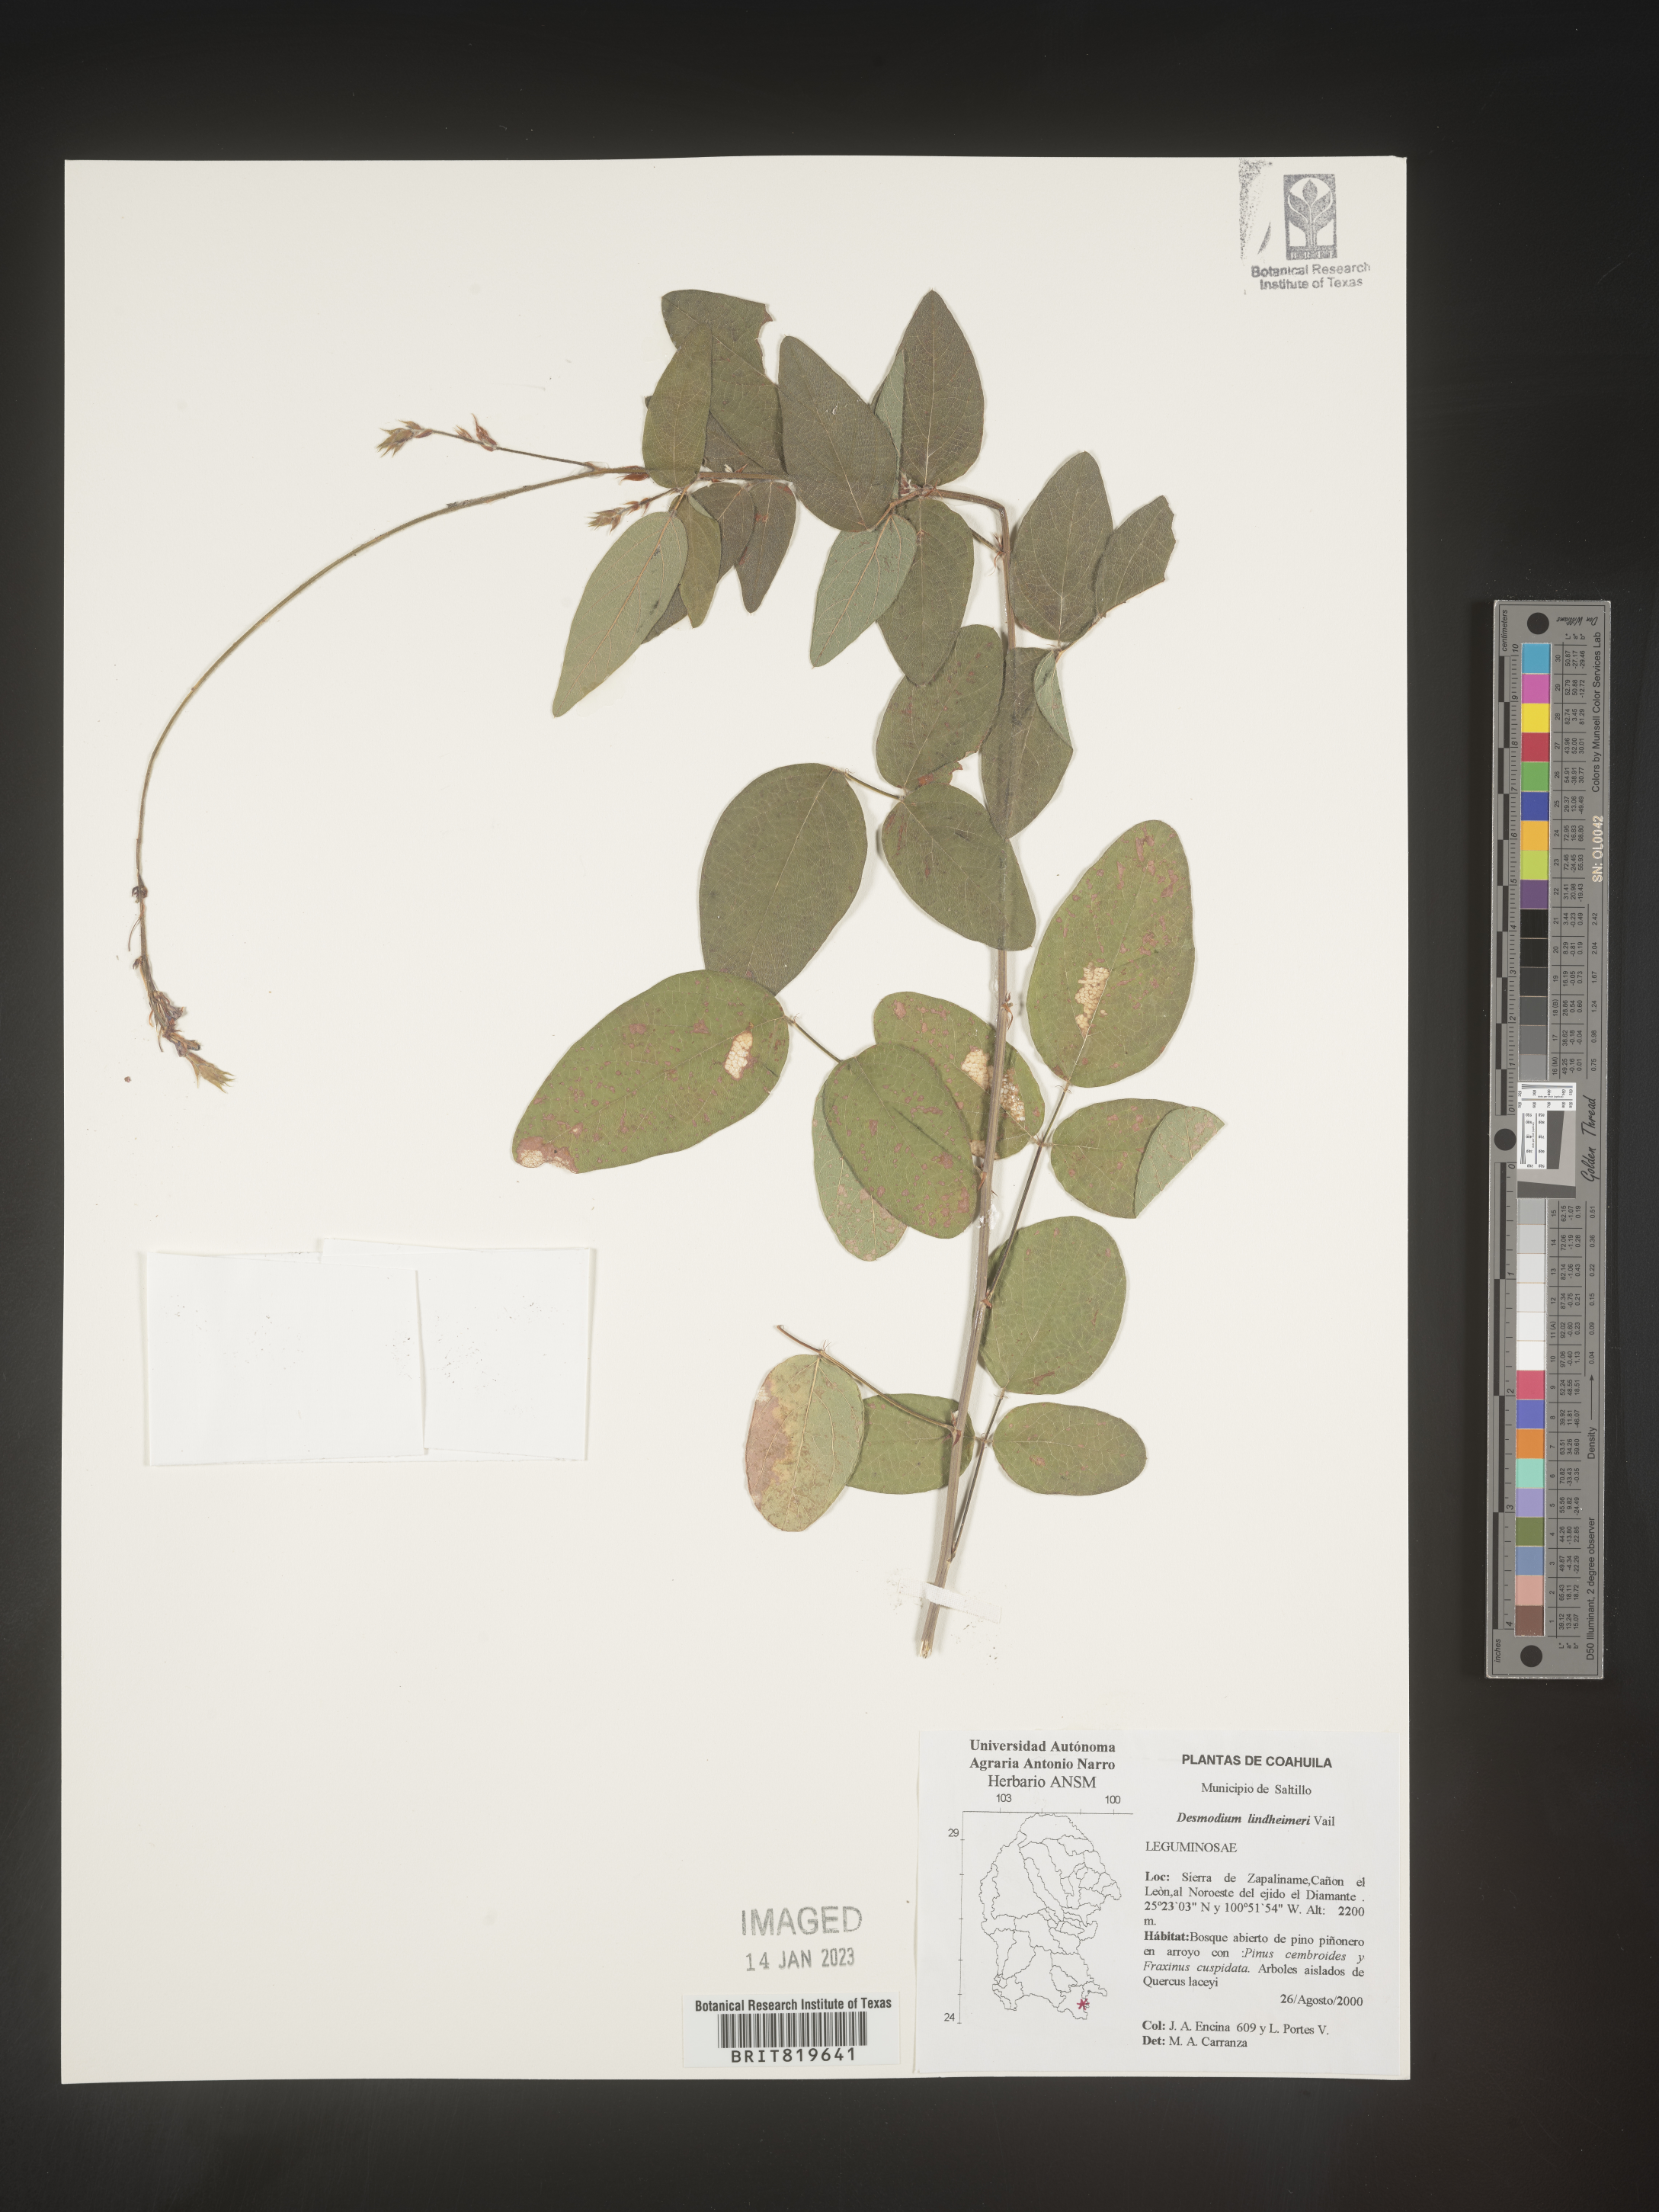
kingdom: Plantae
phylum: Tracheophyta
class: Magnoliopsida
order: Fabales
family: Fabaceae
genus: Desmodium
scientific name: Desmodium
